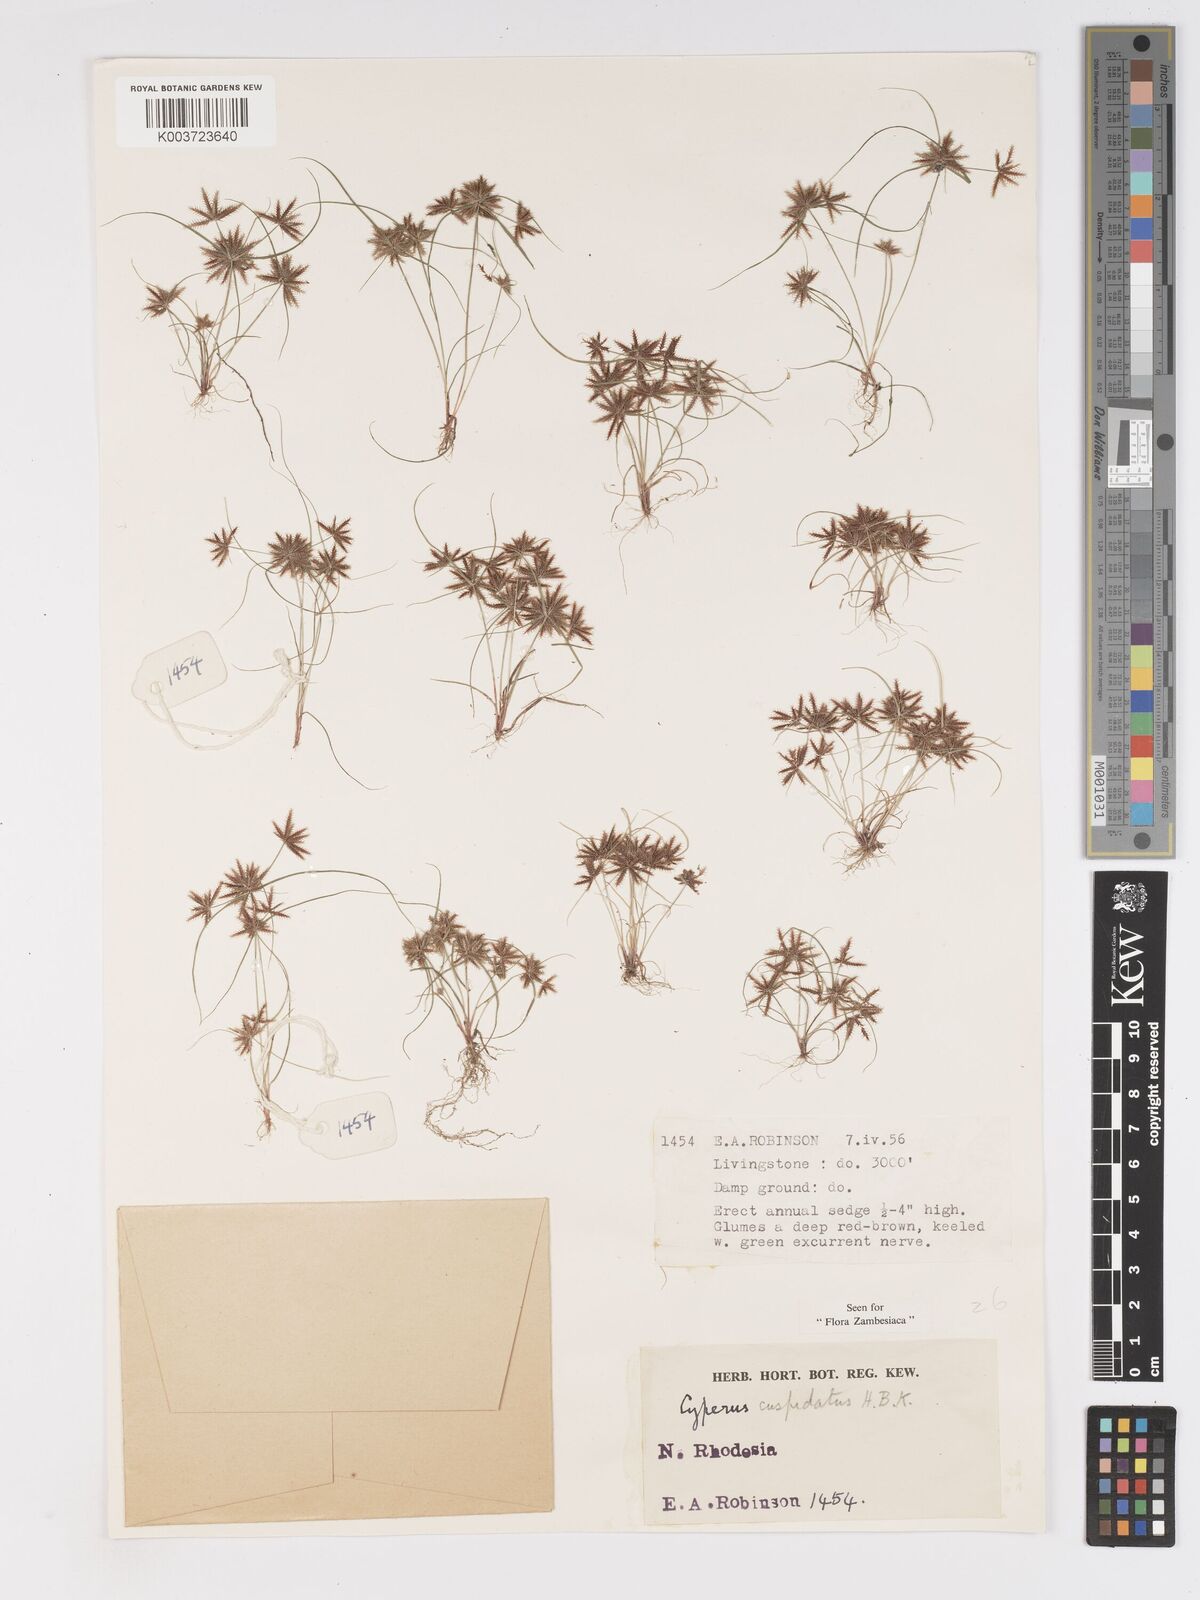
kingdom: Plantae
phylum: Tracheophyta
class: Liliopsida
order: Poales
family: Cyperaceae
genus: Cyperus
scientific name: Cyperus betafensis
